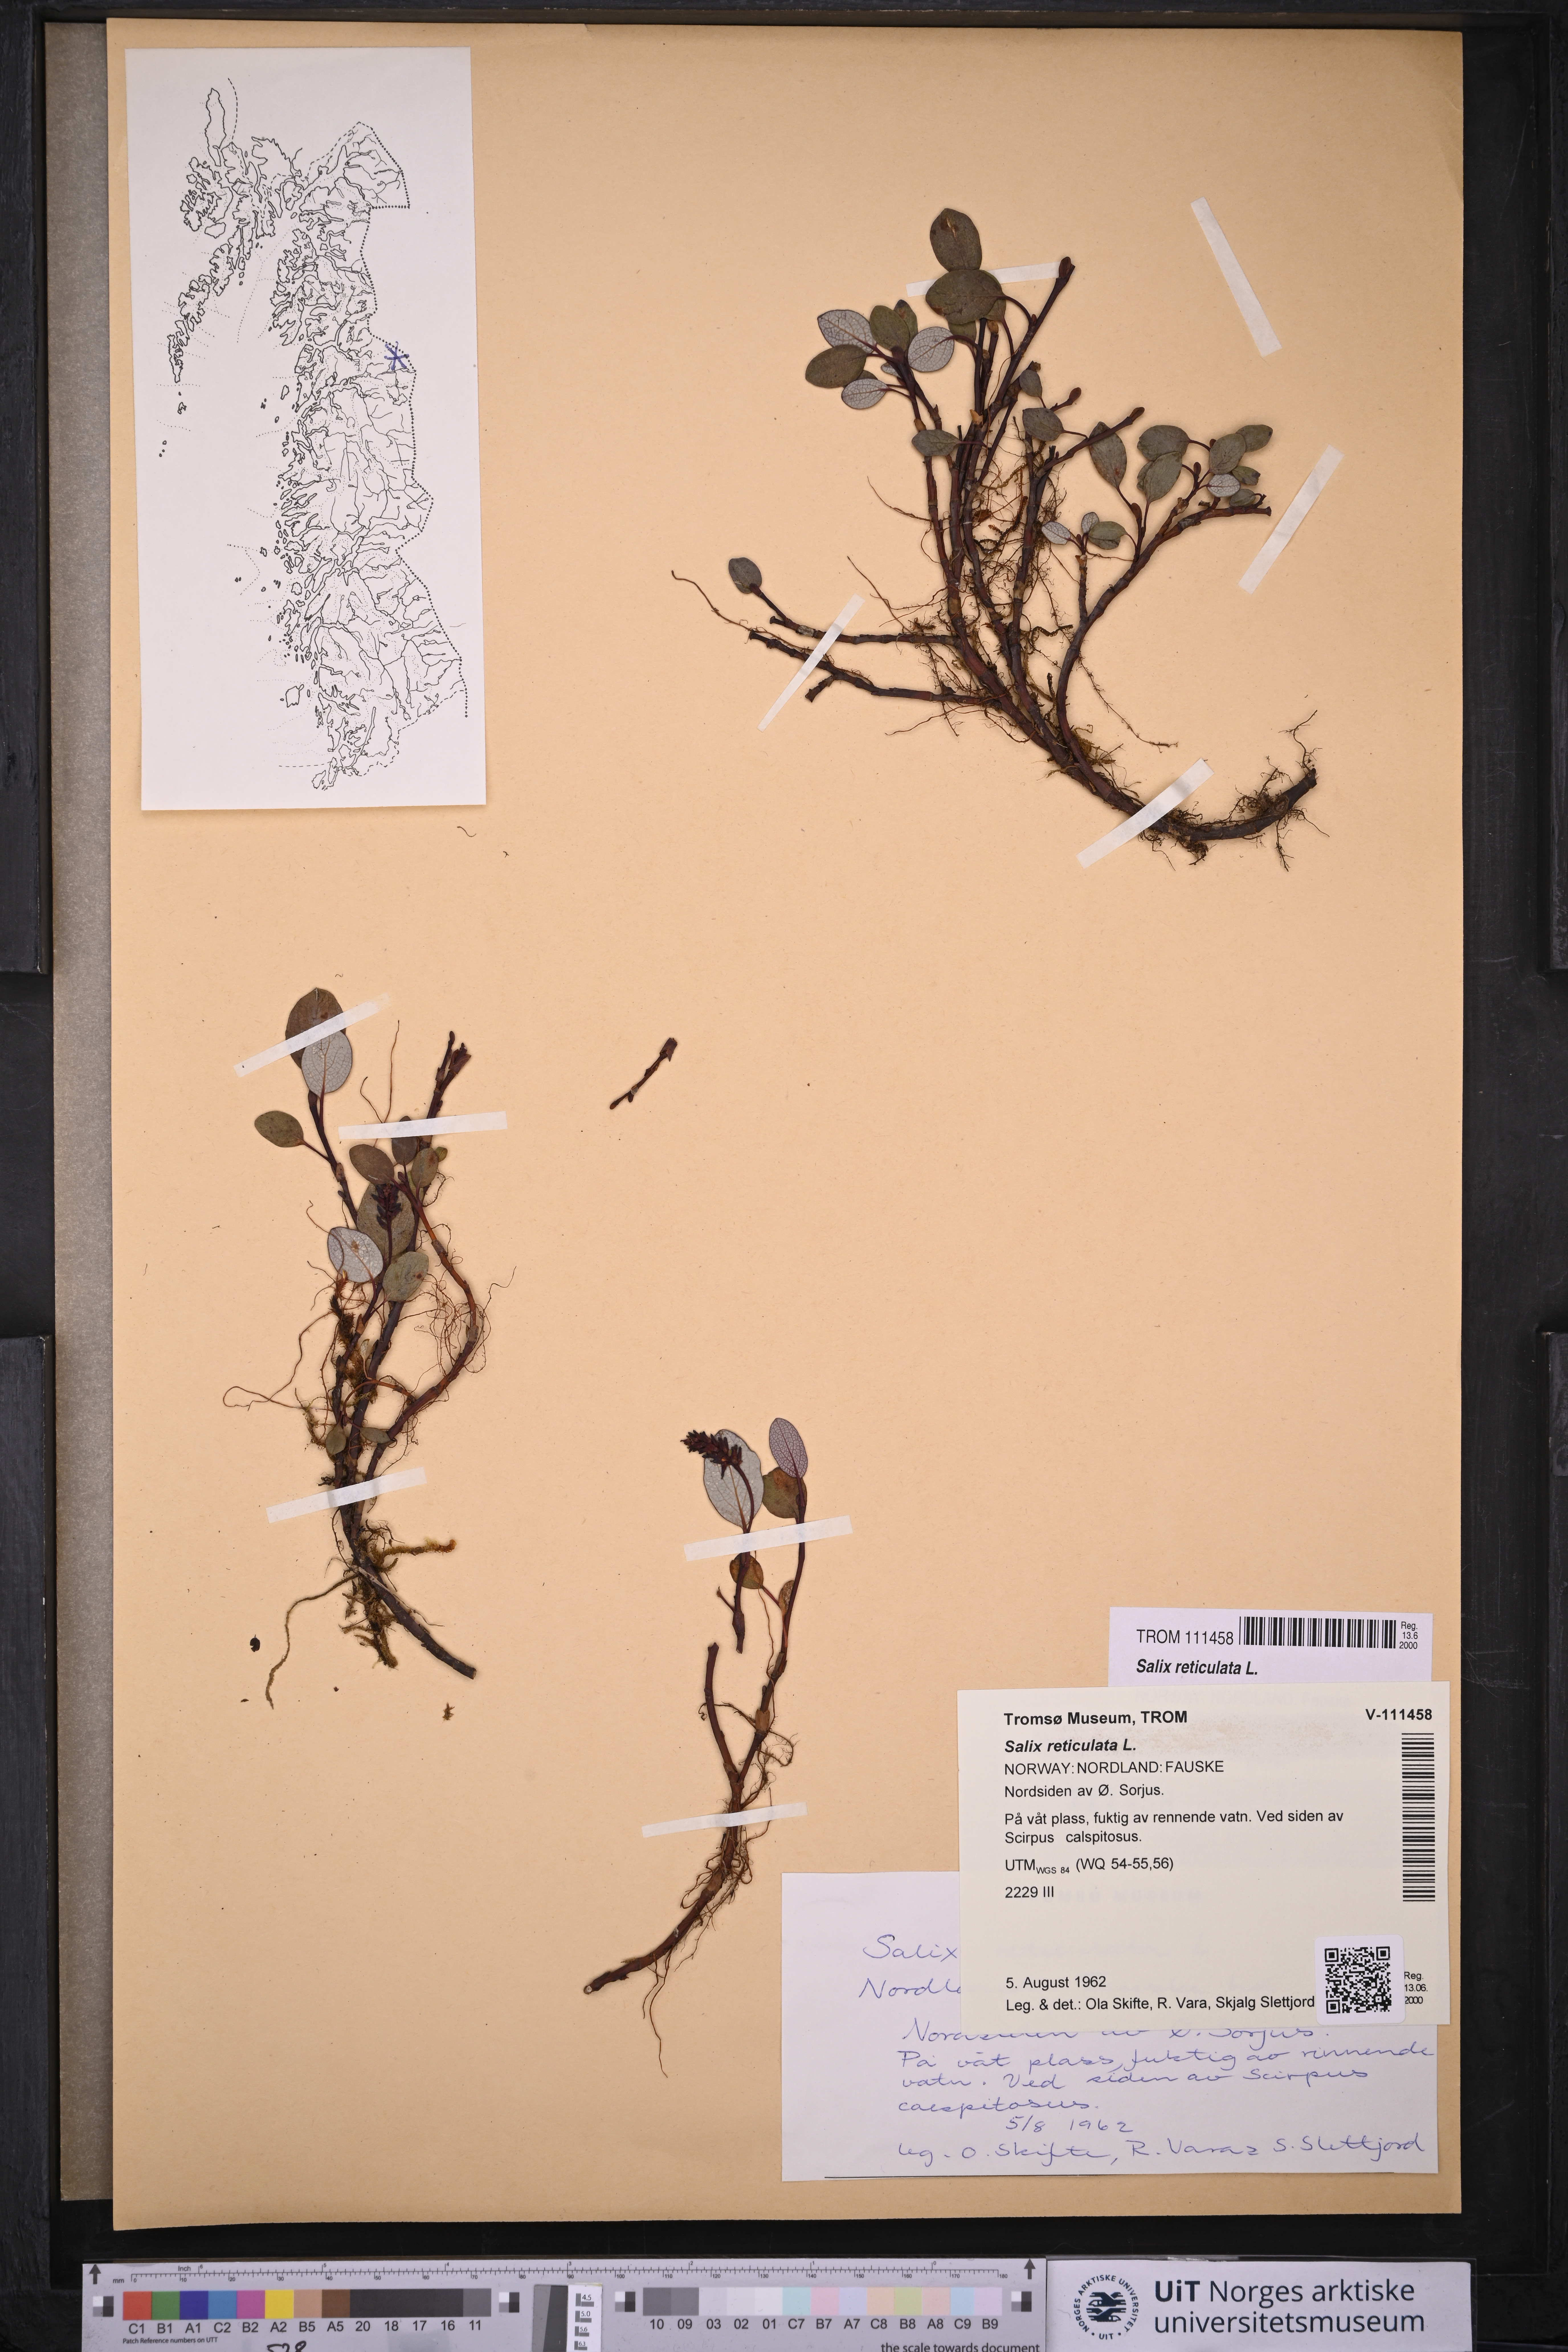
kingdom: Plantae
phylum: Tracheophyta
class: Magnoliopsida
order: Malpighiales
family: Salicaceae
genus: Salix
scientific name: Salix reticulata
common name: Net-leaved willow
